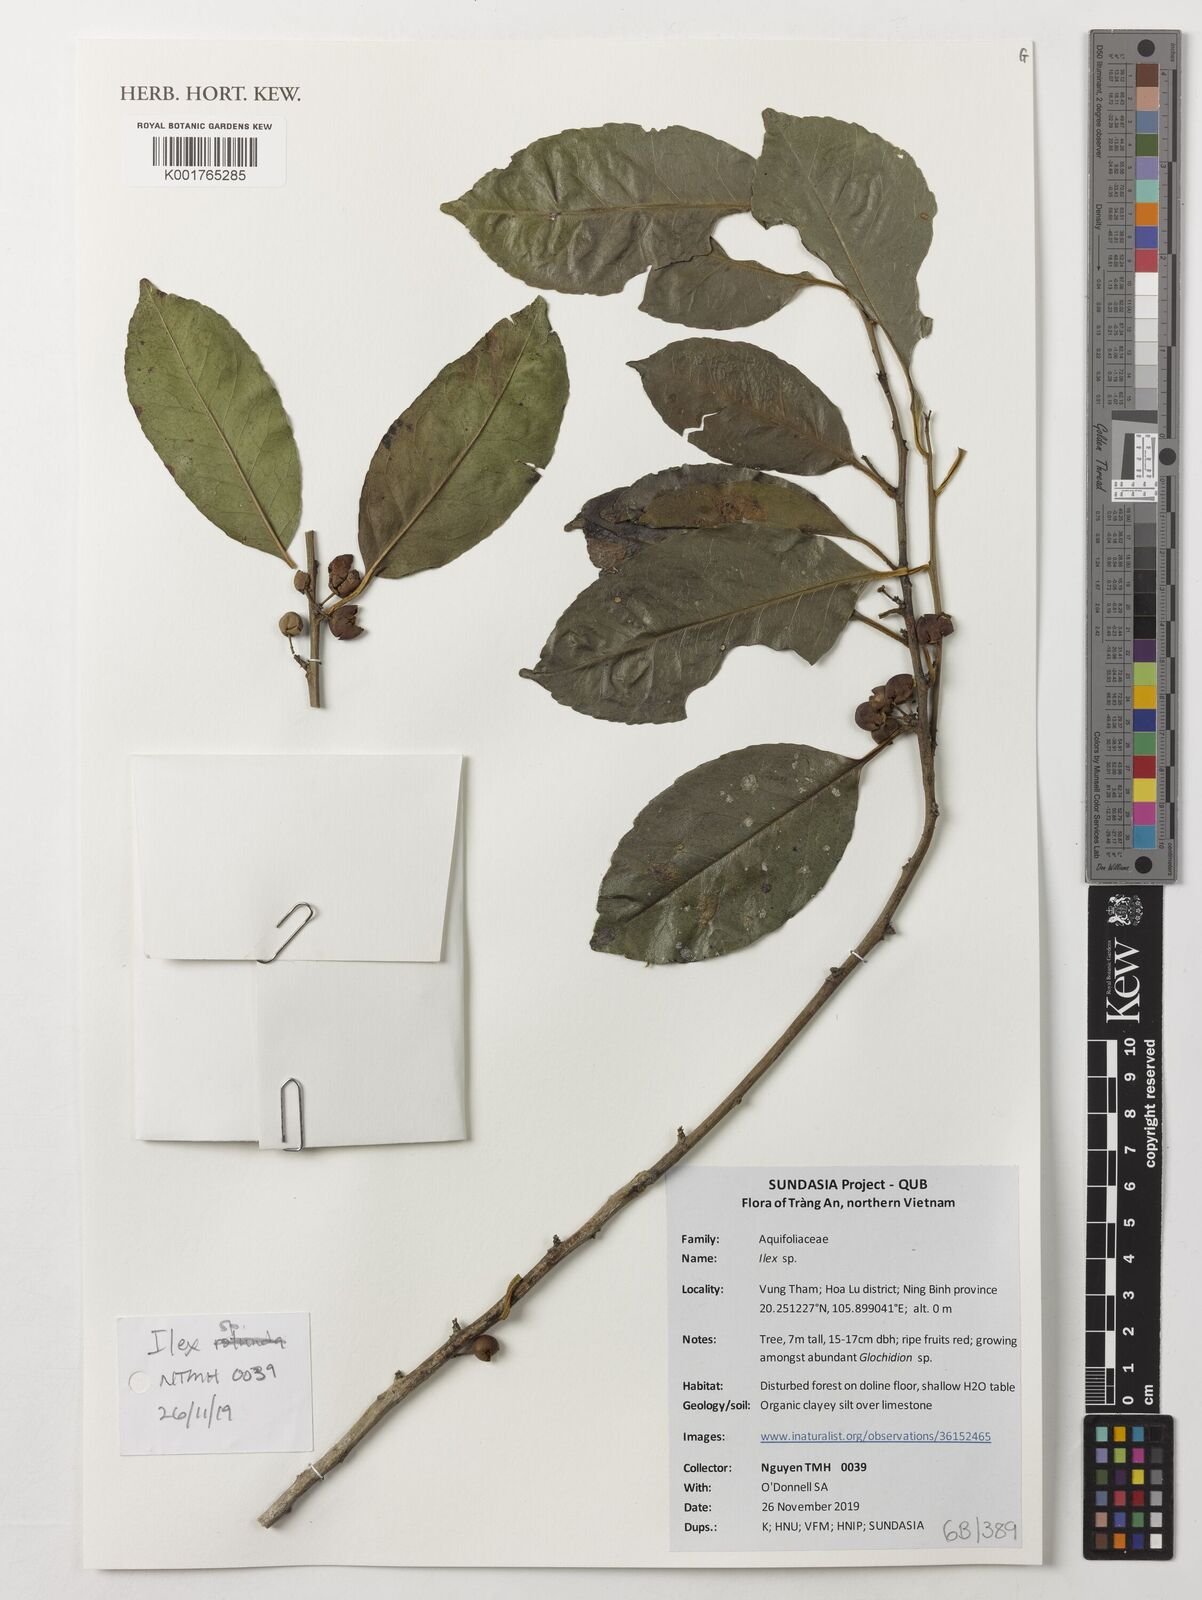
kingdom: Plantae
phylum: Tracheophyta
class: Magnoliopsida
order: Aquifoliales
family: Aquifoliaceae
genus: Ilex
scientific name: Ilex
